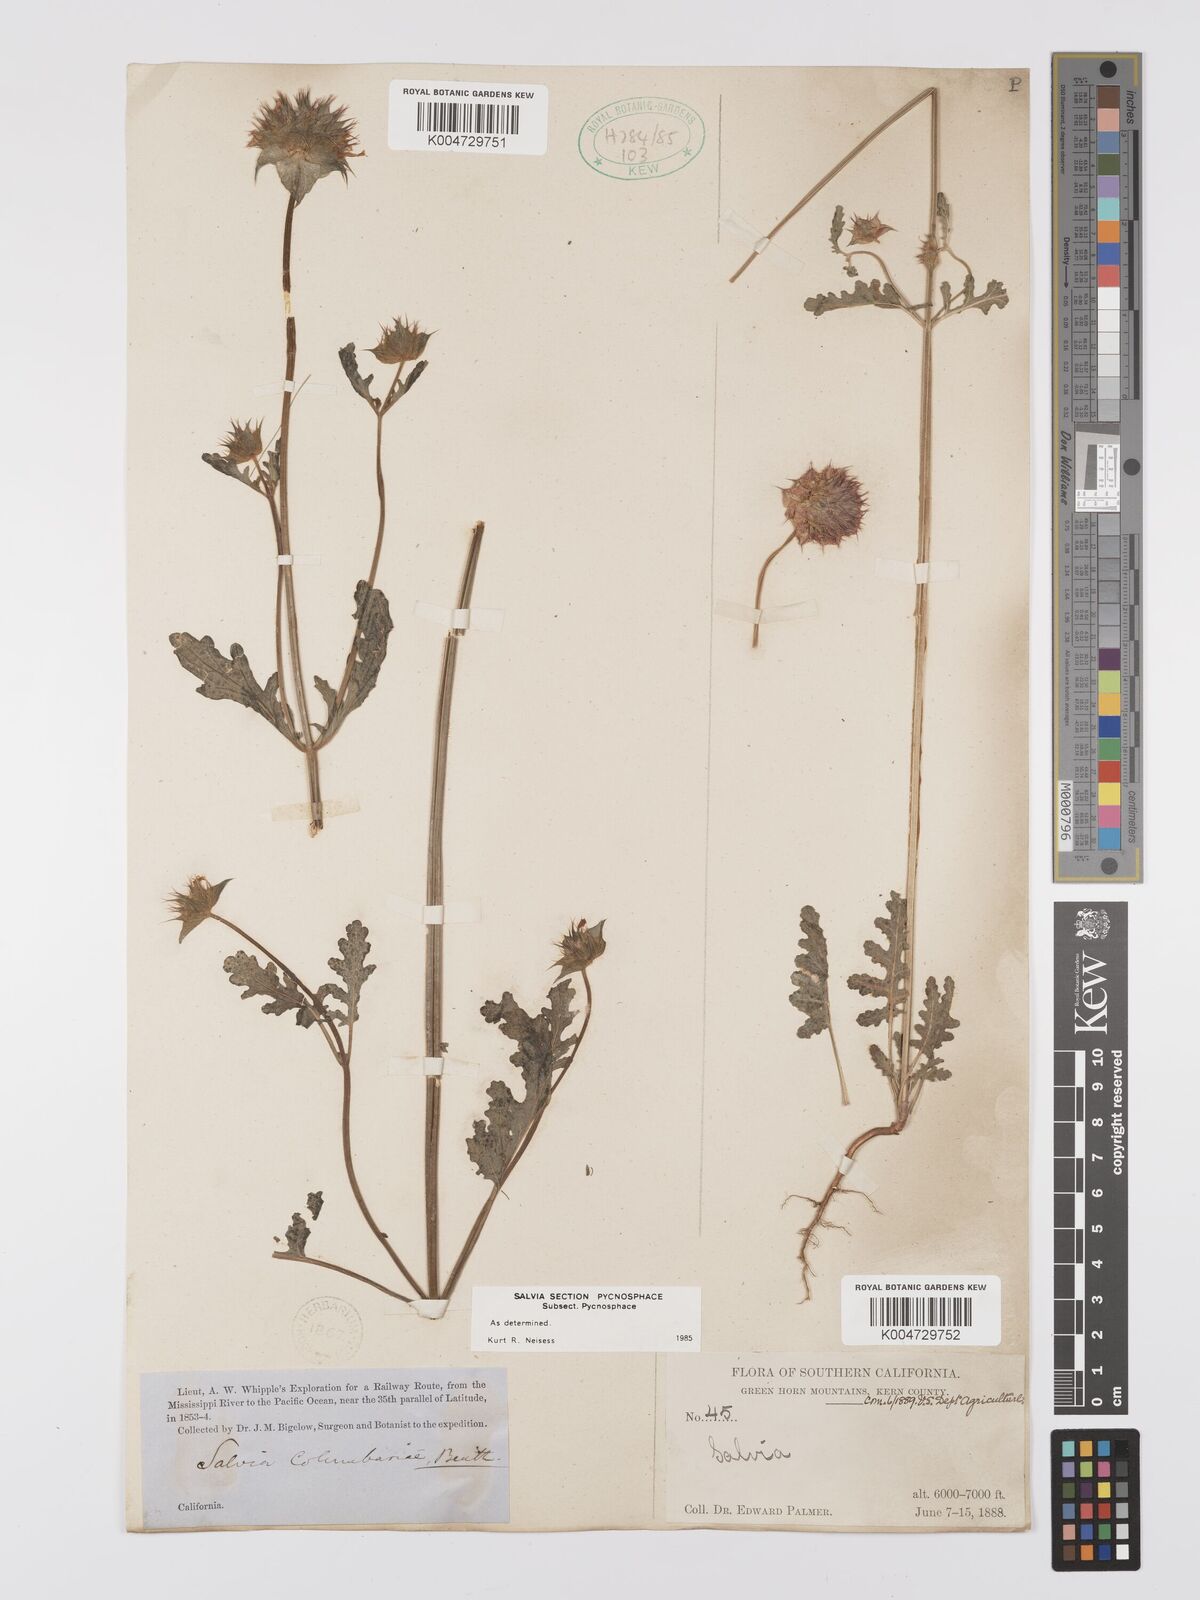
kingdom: Plantae
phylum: Tracheophyta
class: Magnoliopsida
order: Lamiales
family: Lamiaceae
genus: Salvia
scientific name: Salvia columbariae
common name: Chia
